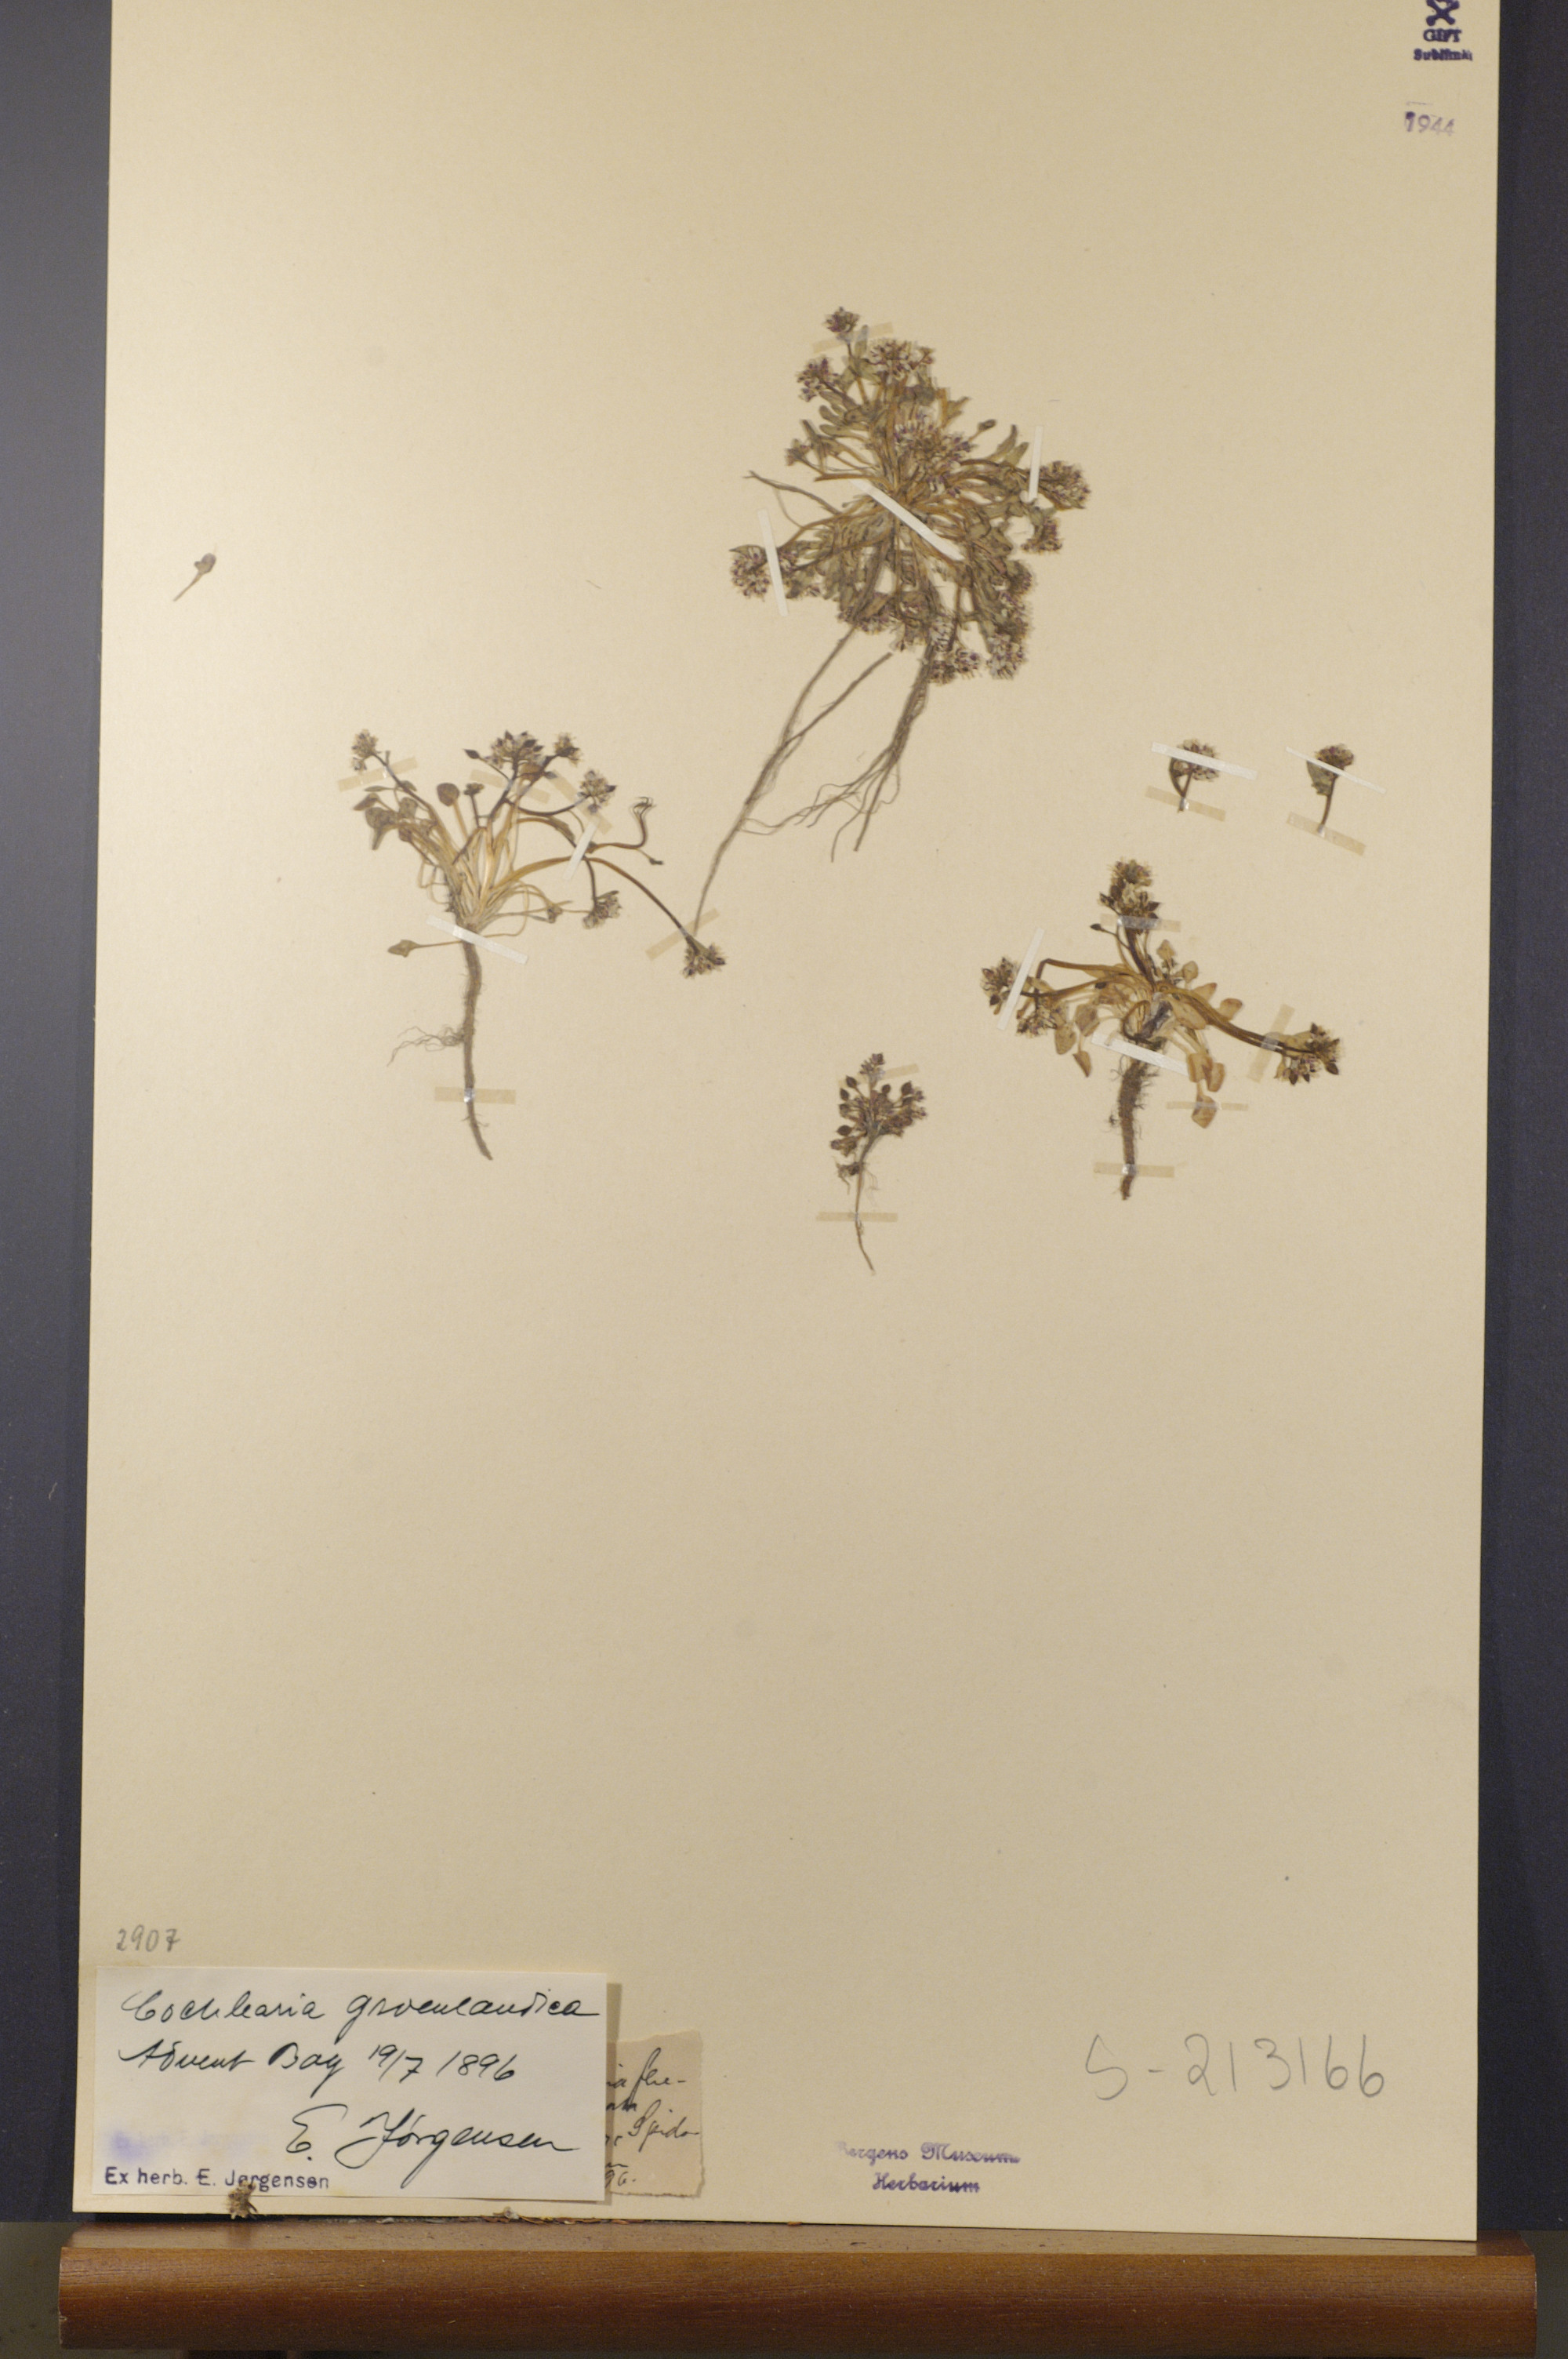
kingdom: Plantae
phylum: Tracheophyta
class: Magnoliopsida
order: Brassicales
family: Brassicaceae
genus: Cochlearia
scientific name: Cochlearia groenlandica
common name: Danish scurvygrass
